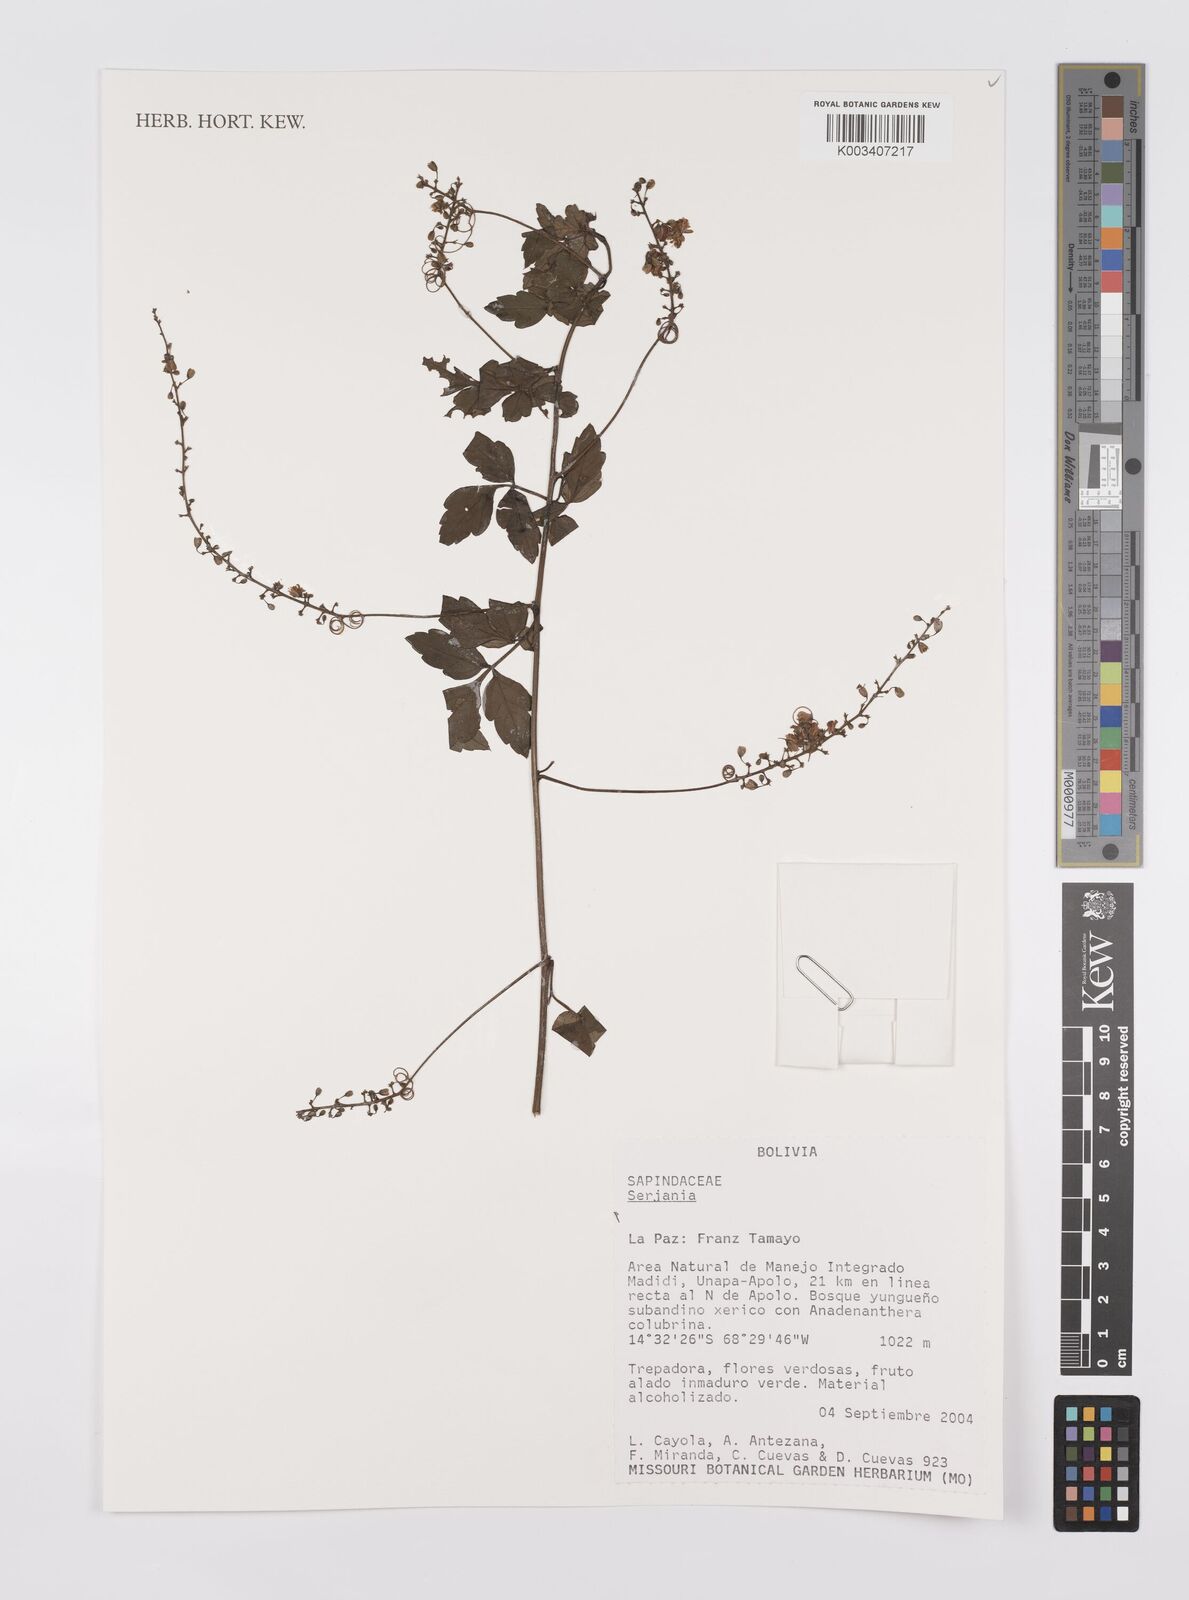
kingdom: Plantae
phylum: Tracheophyta
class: Magnoliopsida
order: Sapindales
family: Sapindaceae
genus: Serjania
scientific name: Serjania
